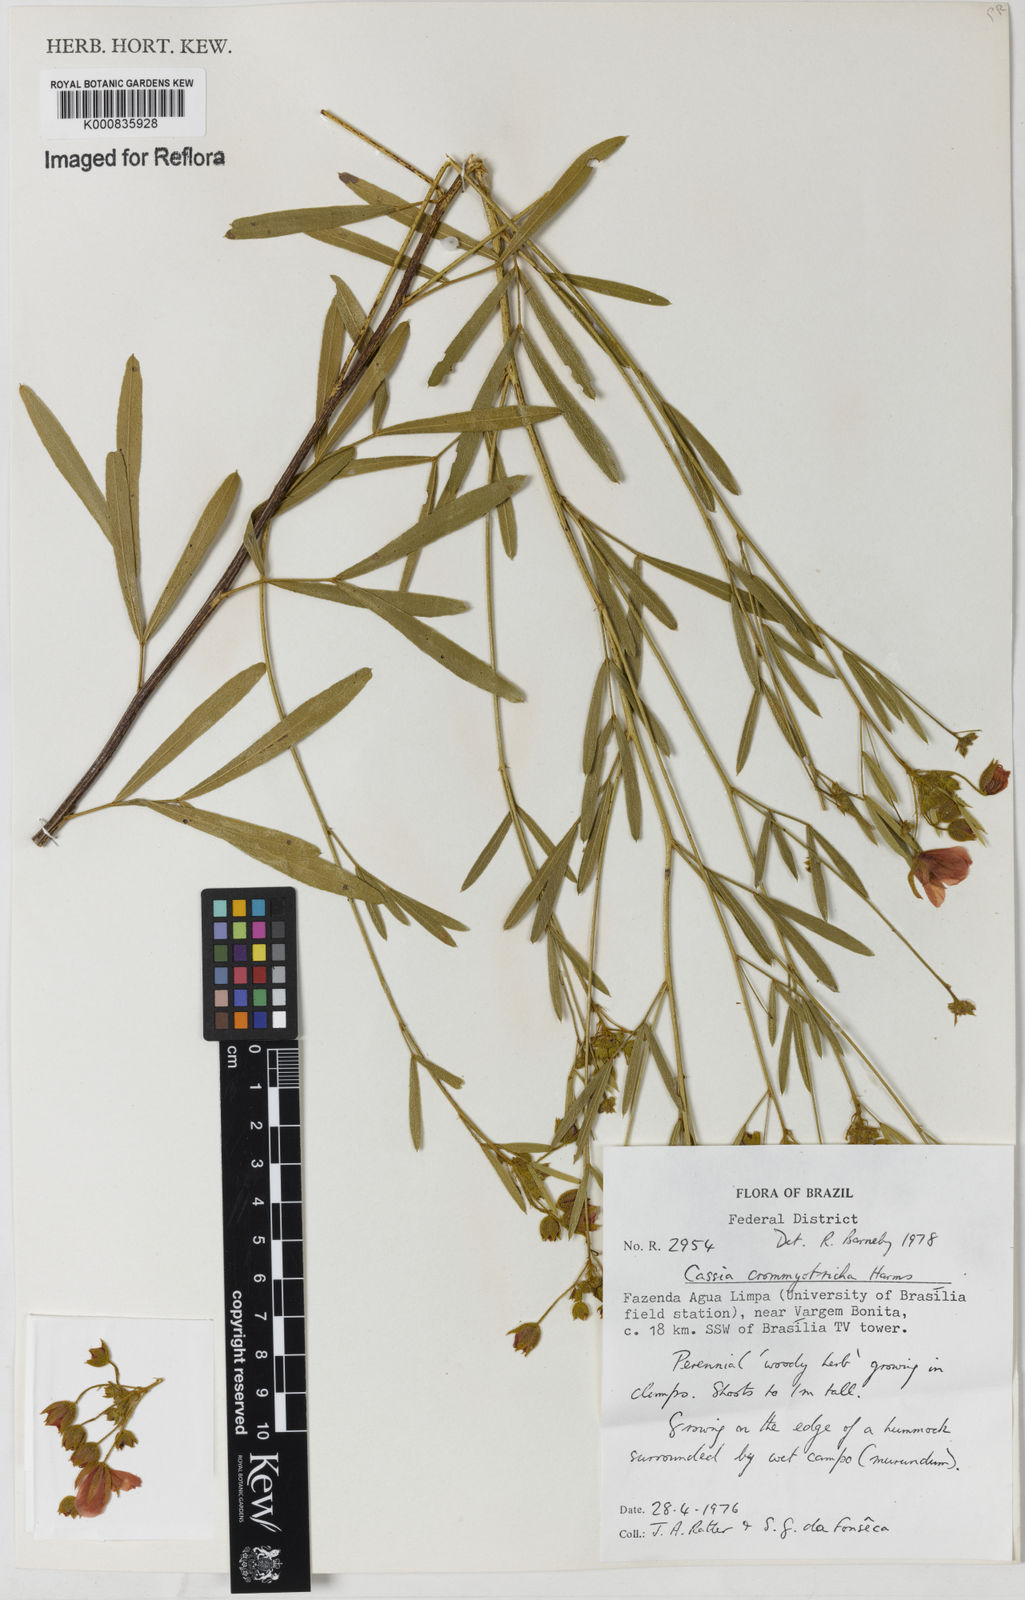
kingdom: Plantae
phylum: Tracheophyta
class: Magnoliopsida
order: Fabales
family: Fabaceae
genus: Chamaecrista
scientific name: Chamaecrista crommyotricha
